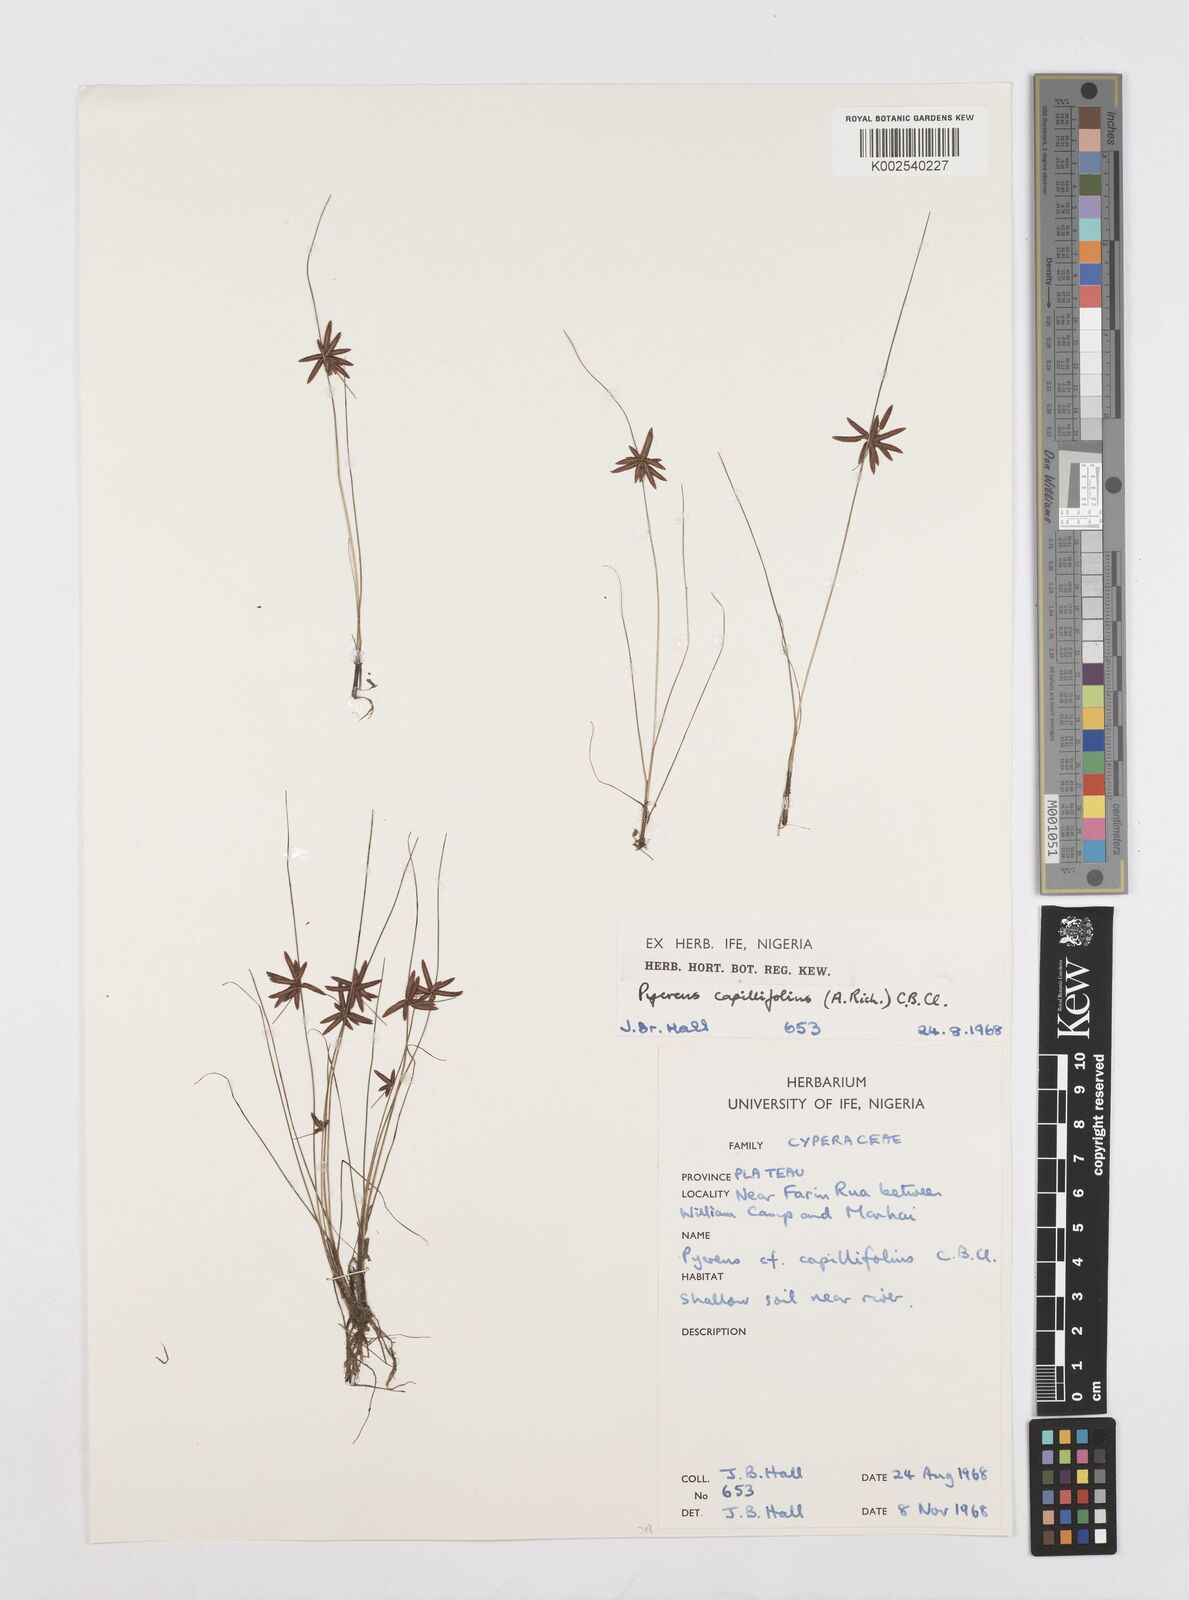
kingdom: Plantae
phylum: Tracheophyta
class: Liliopsida
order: Poales
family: Cyperaceae
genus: Cyperus
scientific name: Cyperus capillifolius
